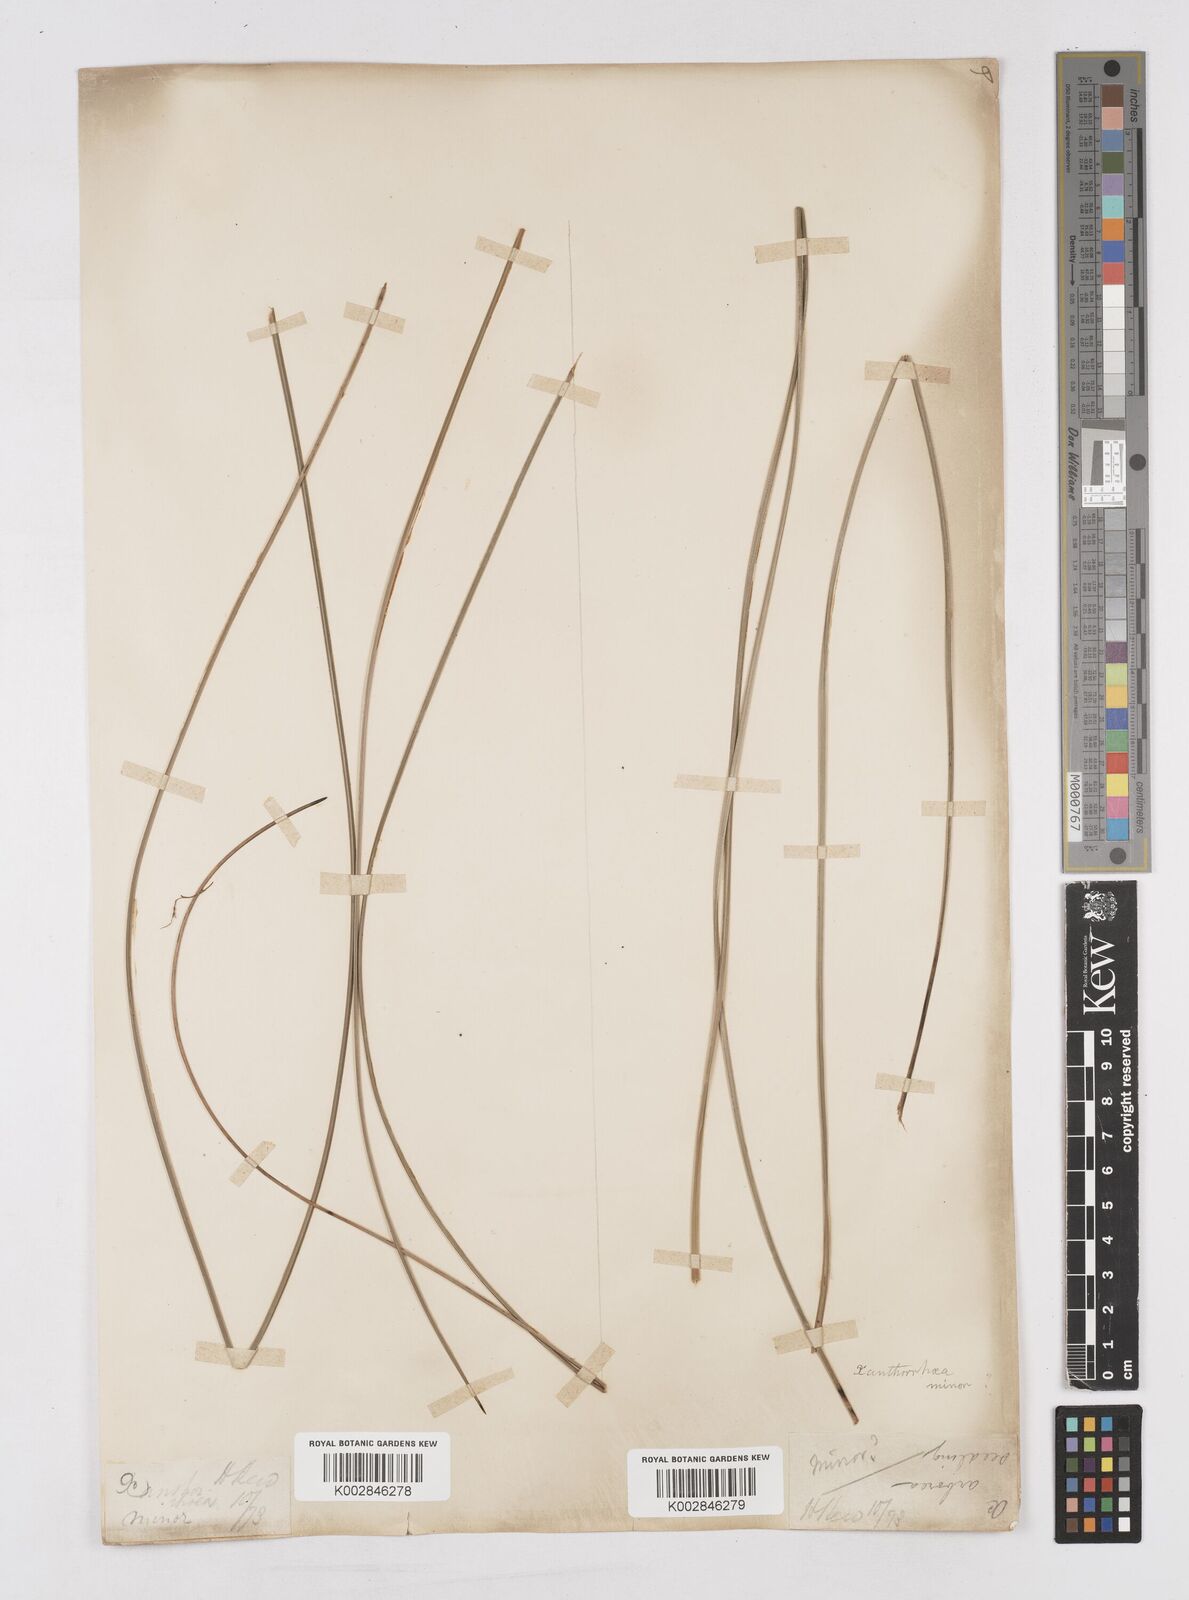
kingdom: Plantae
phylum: Tracheophyta
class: Liliopsida
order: Asparagales
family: Asphodelaceae
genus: Xanthorrhoea
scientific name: Xanthorrhoea minor
